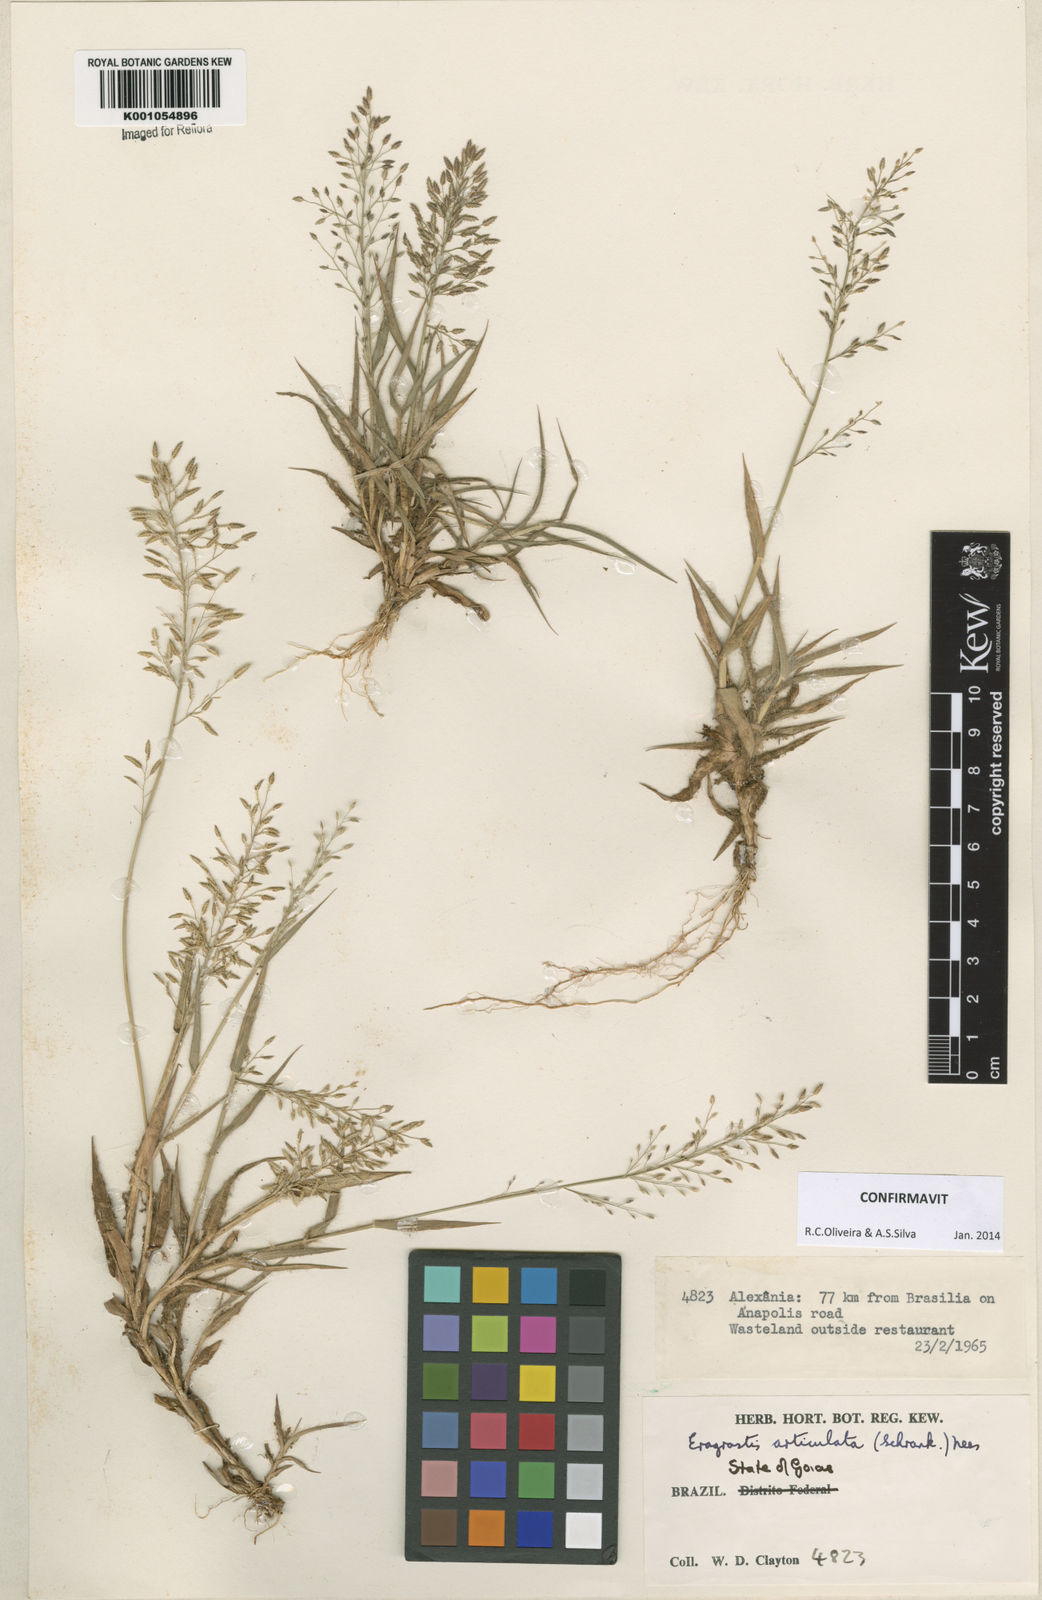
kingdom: Plantae
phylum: Tracheophyta
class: Liliopsida
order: Poales
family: Poaceae
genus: Eragrostis
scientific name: Eragrostis articulata
